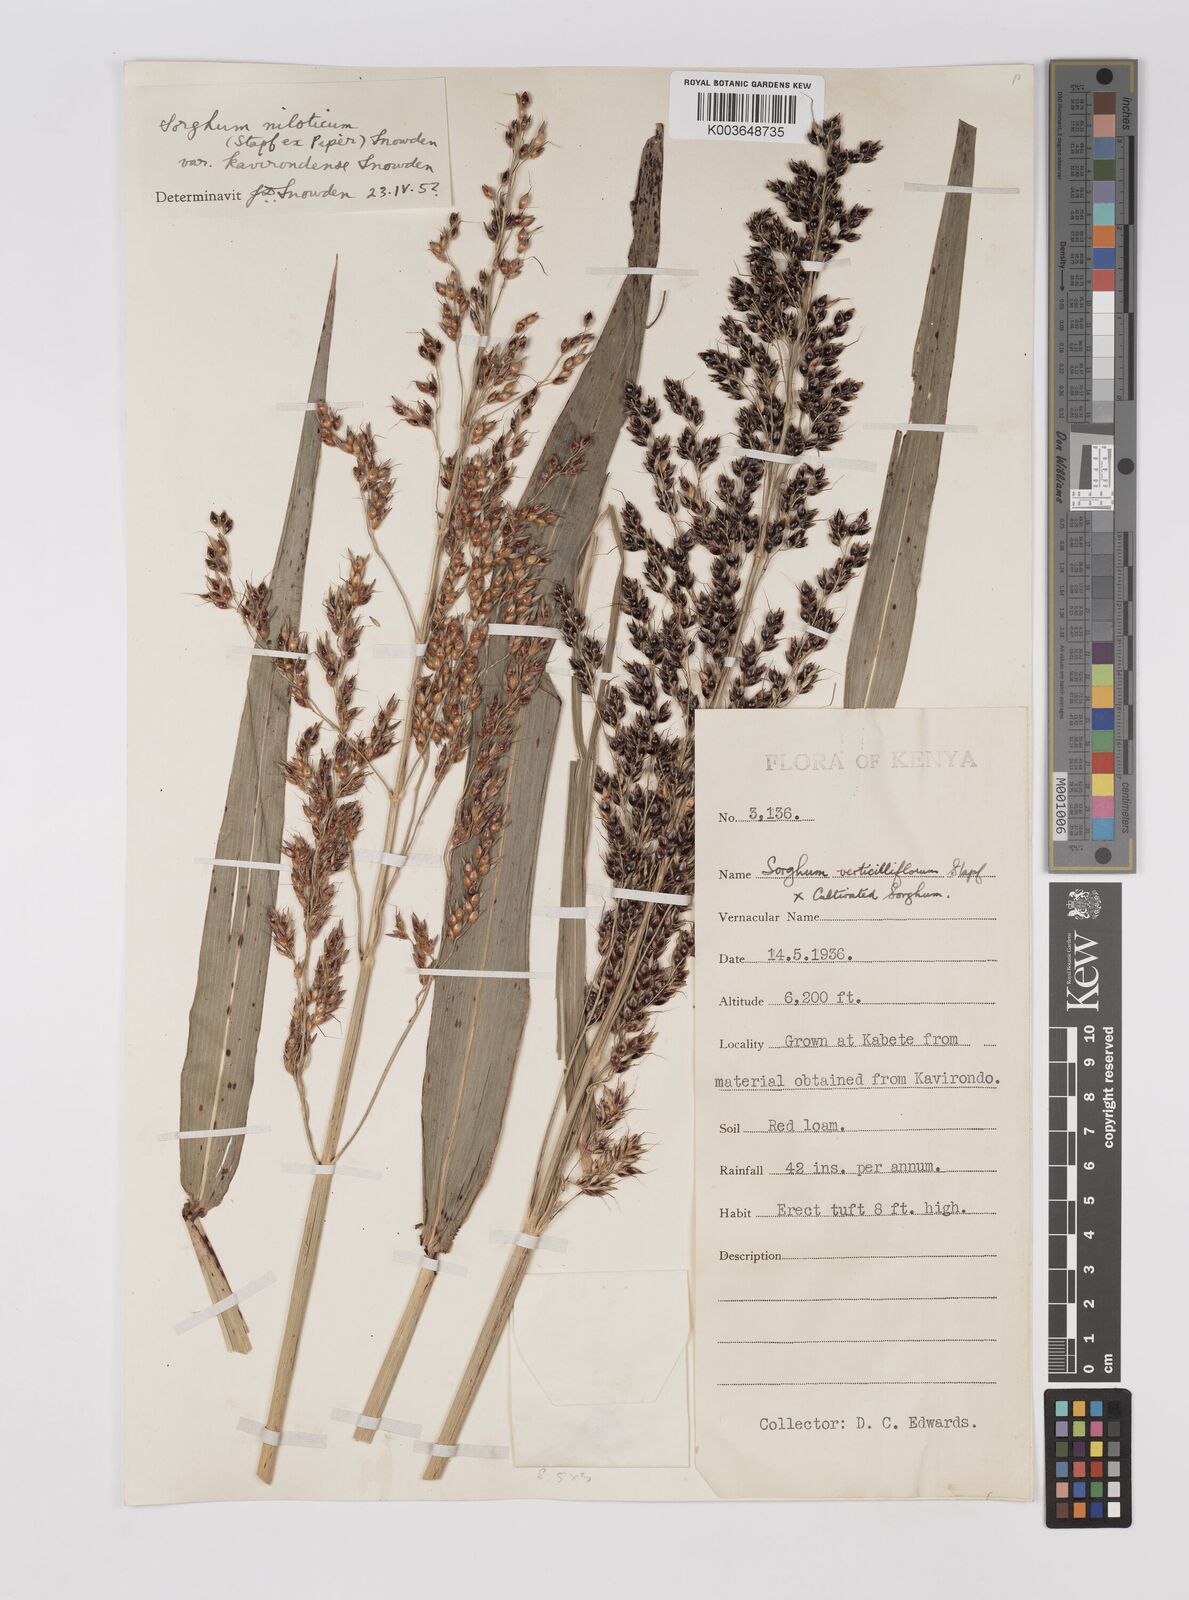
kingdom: Plantae
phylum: Tracheophyta
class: Liliopsida
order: Poales
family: Poaceae
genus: Sorghum
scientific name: Sorghum drummondii
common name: Sudangrass
